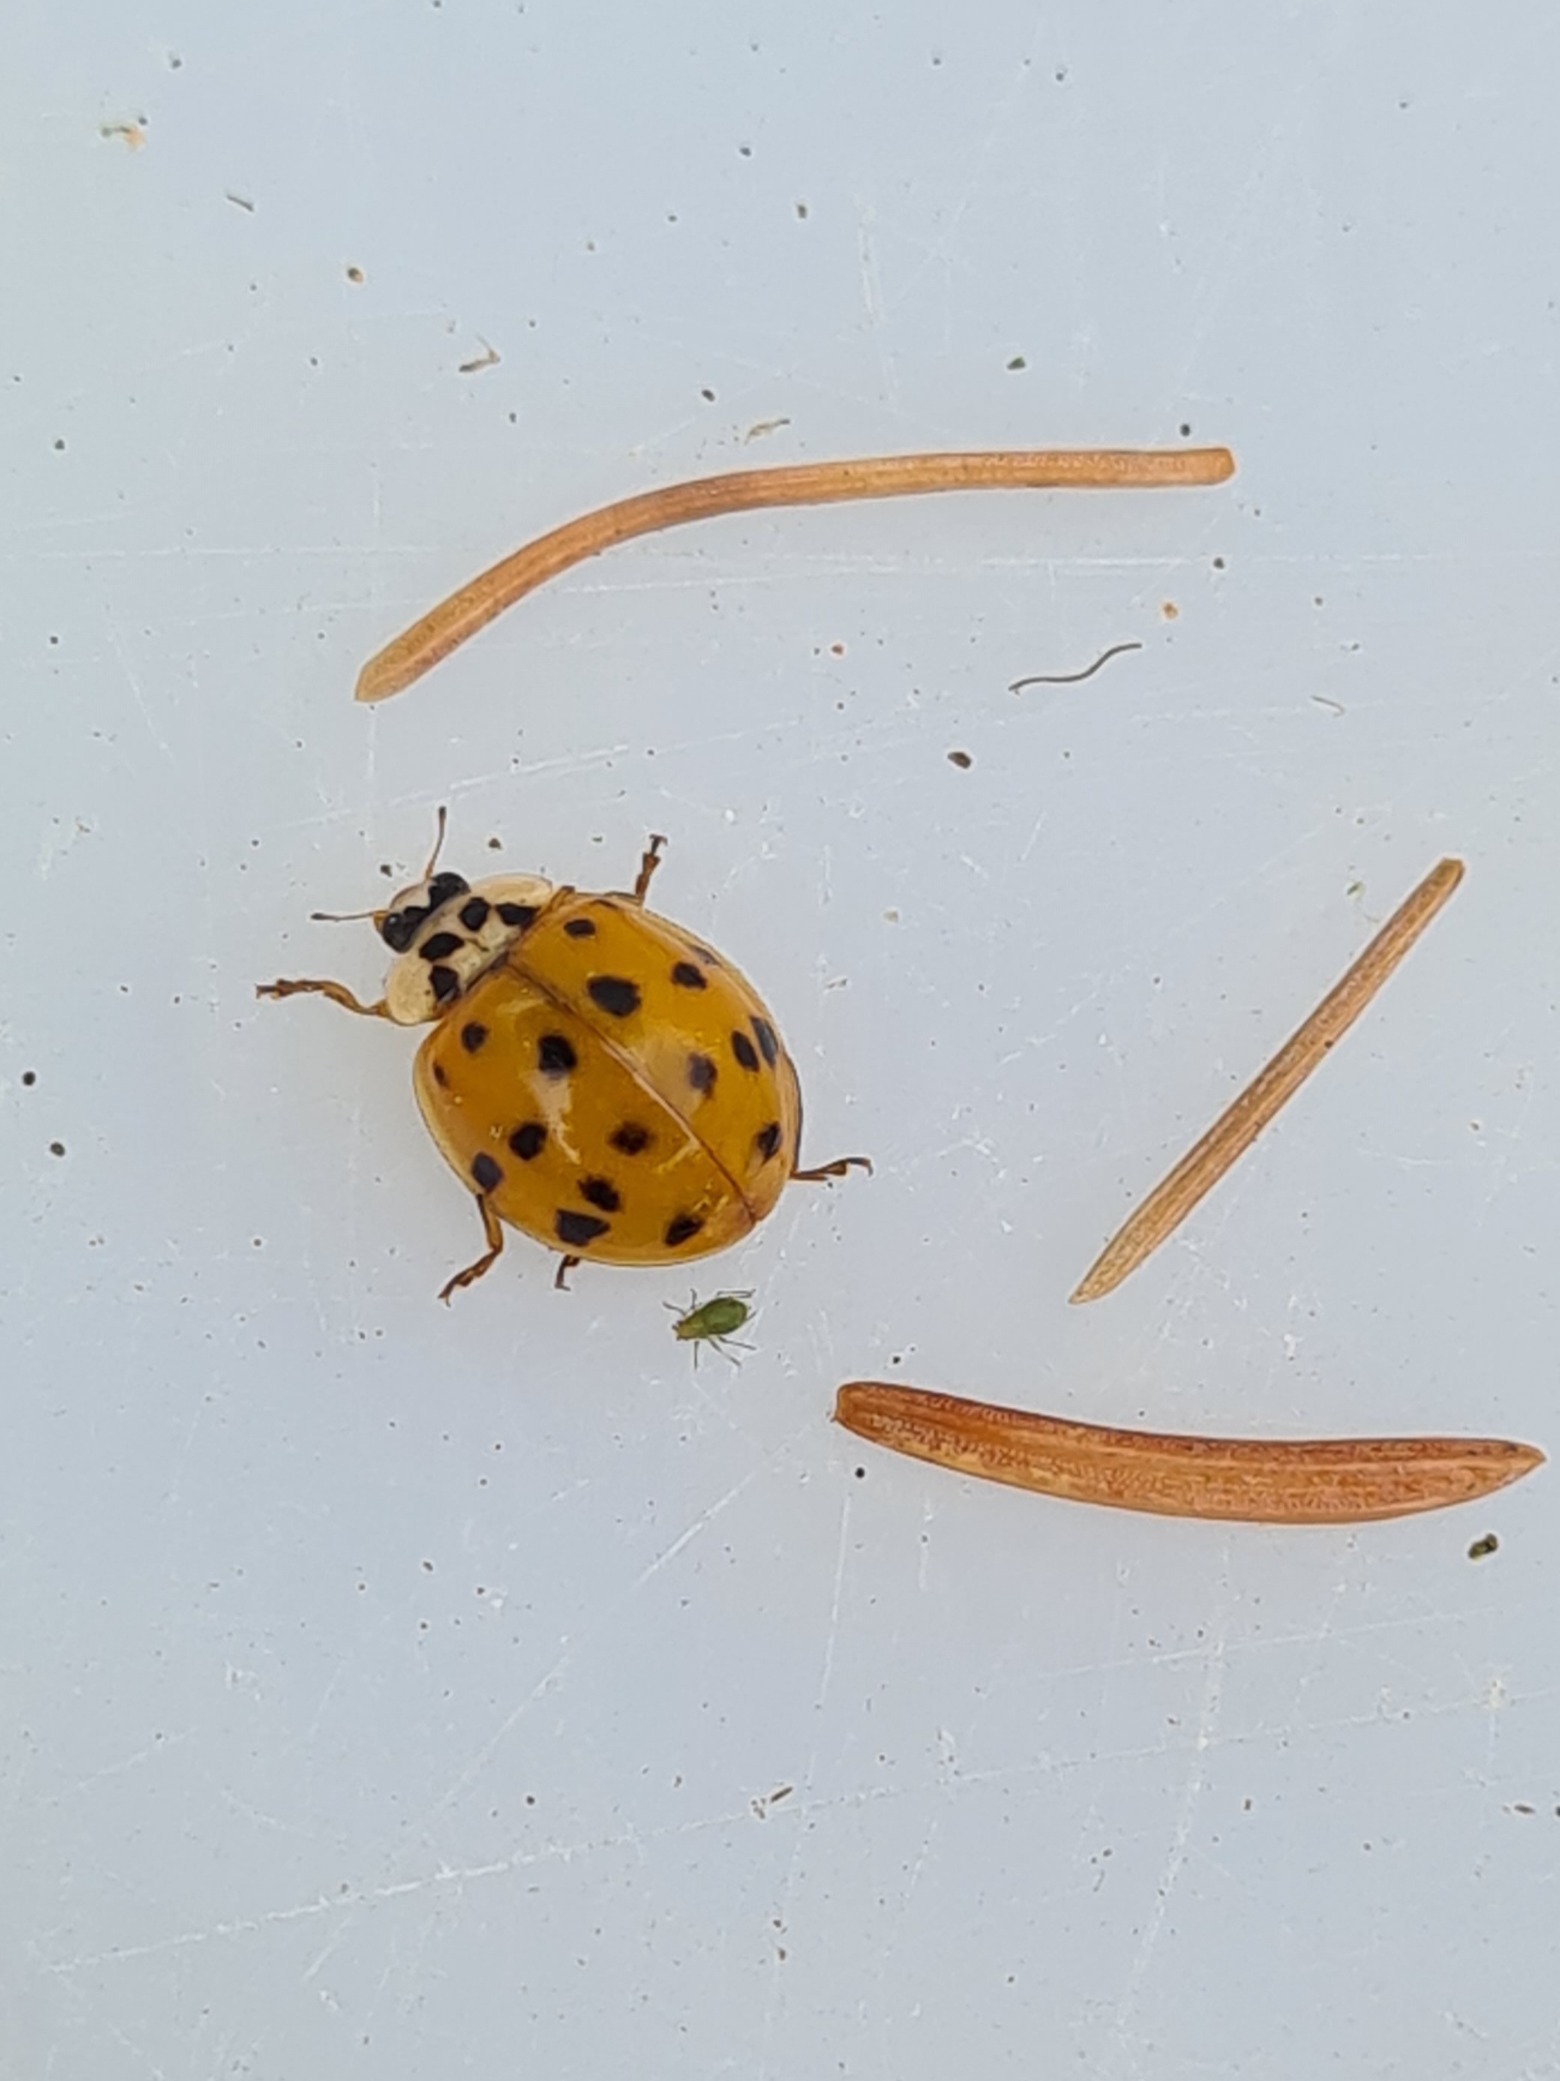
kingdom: Animalia
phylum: Arthropoda
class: Insecta
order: Coleoptera
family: Coccinellidae
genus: Harmonia
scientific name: Harmonia axyridis
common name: Harlekinmariehøne
